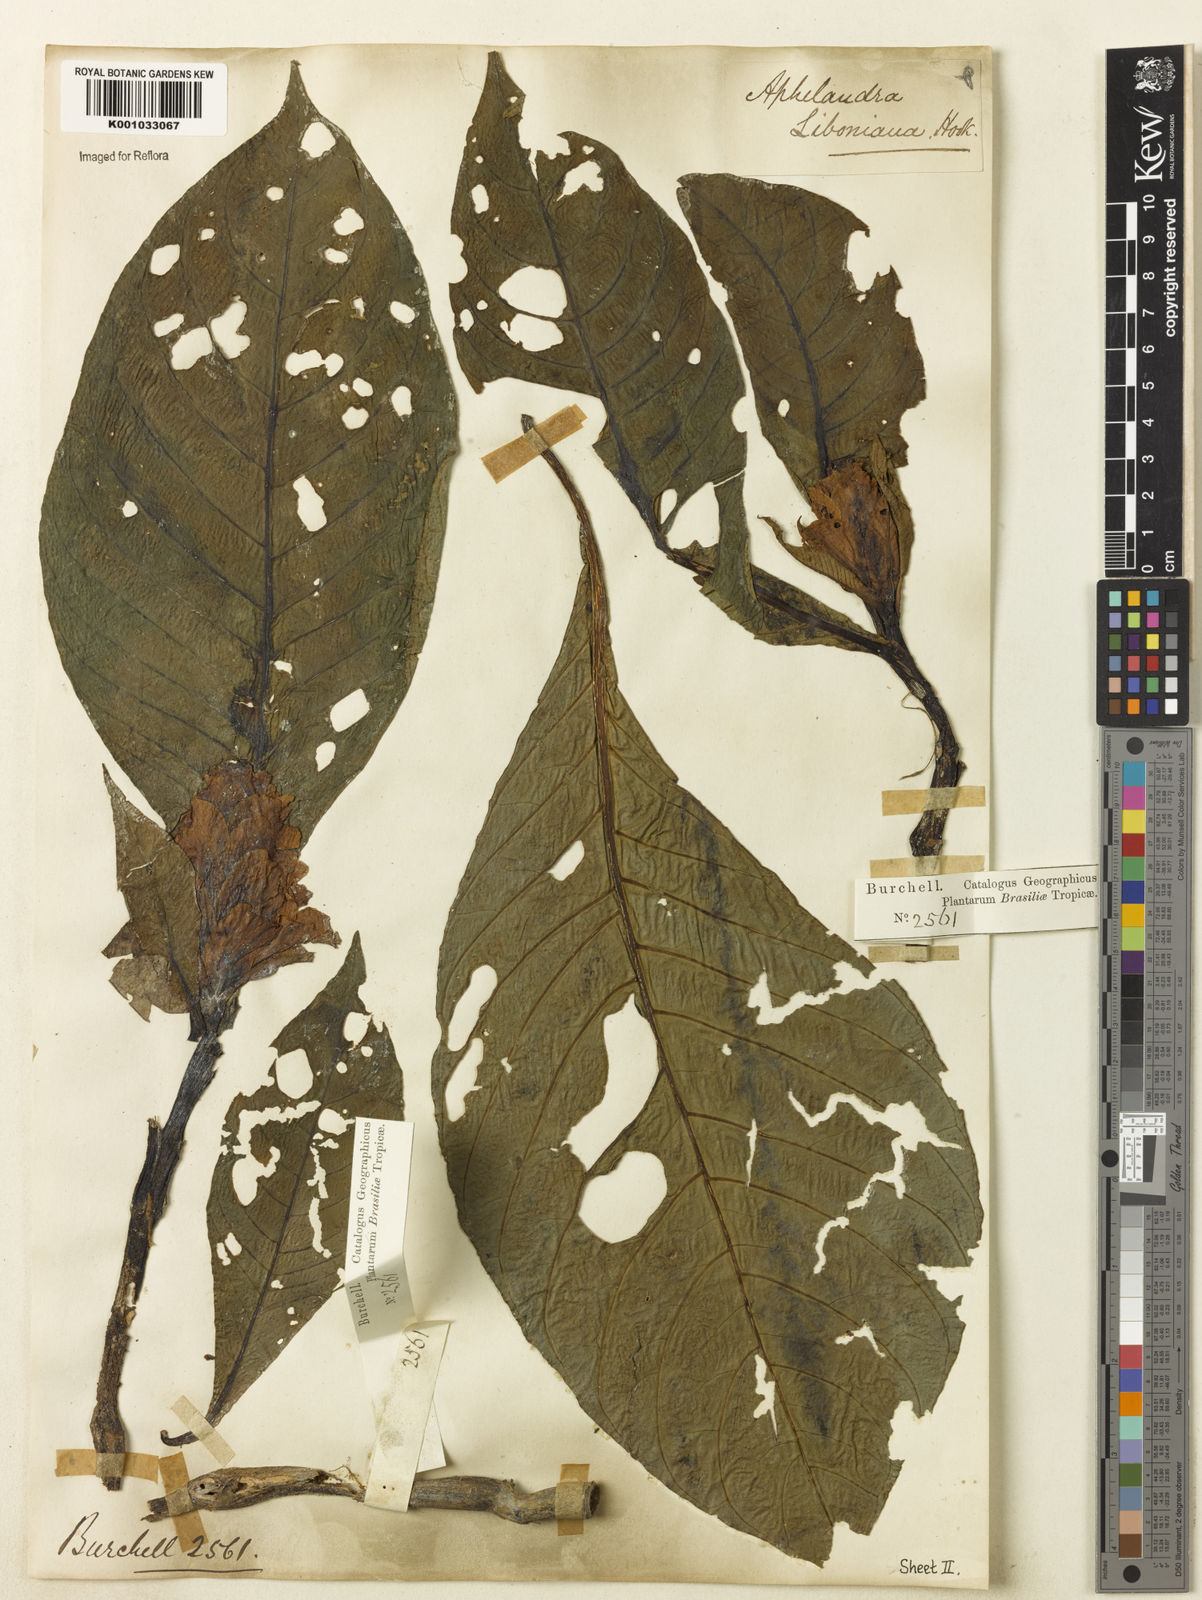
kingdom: Plantae
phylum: Tracheophyta
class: Magnoliopsida
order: Lamiales
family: Acanthaceae
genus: Aphelandra
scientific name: Aphelandra liboniana
